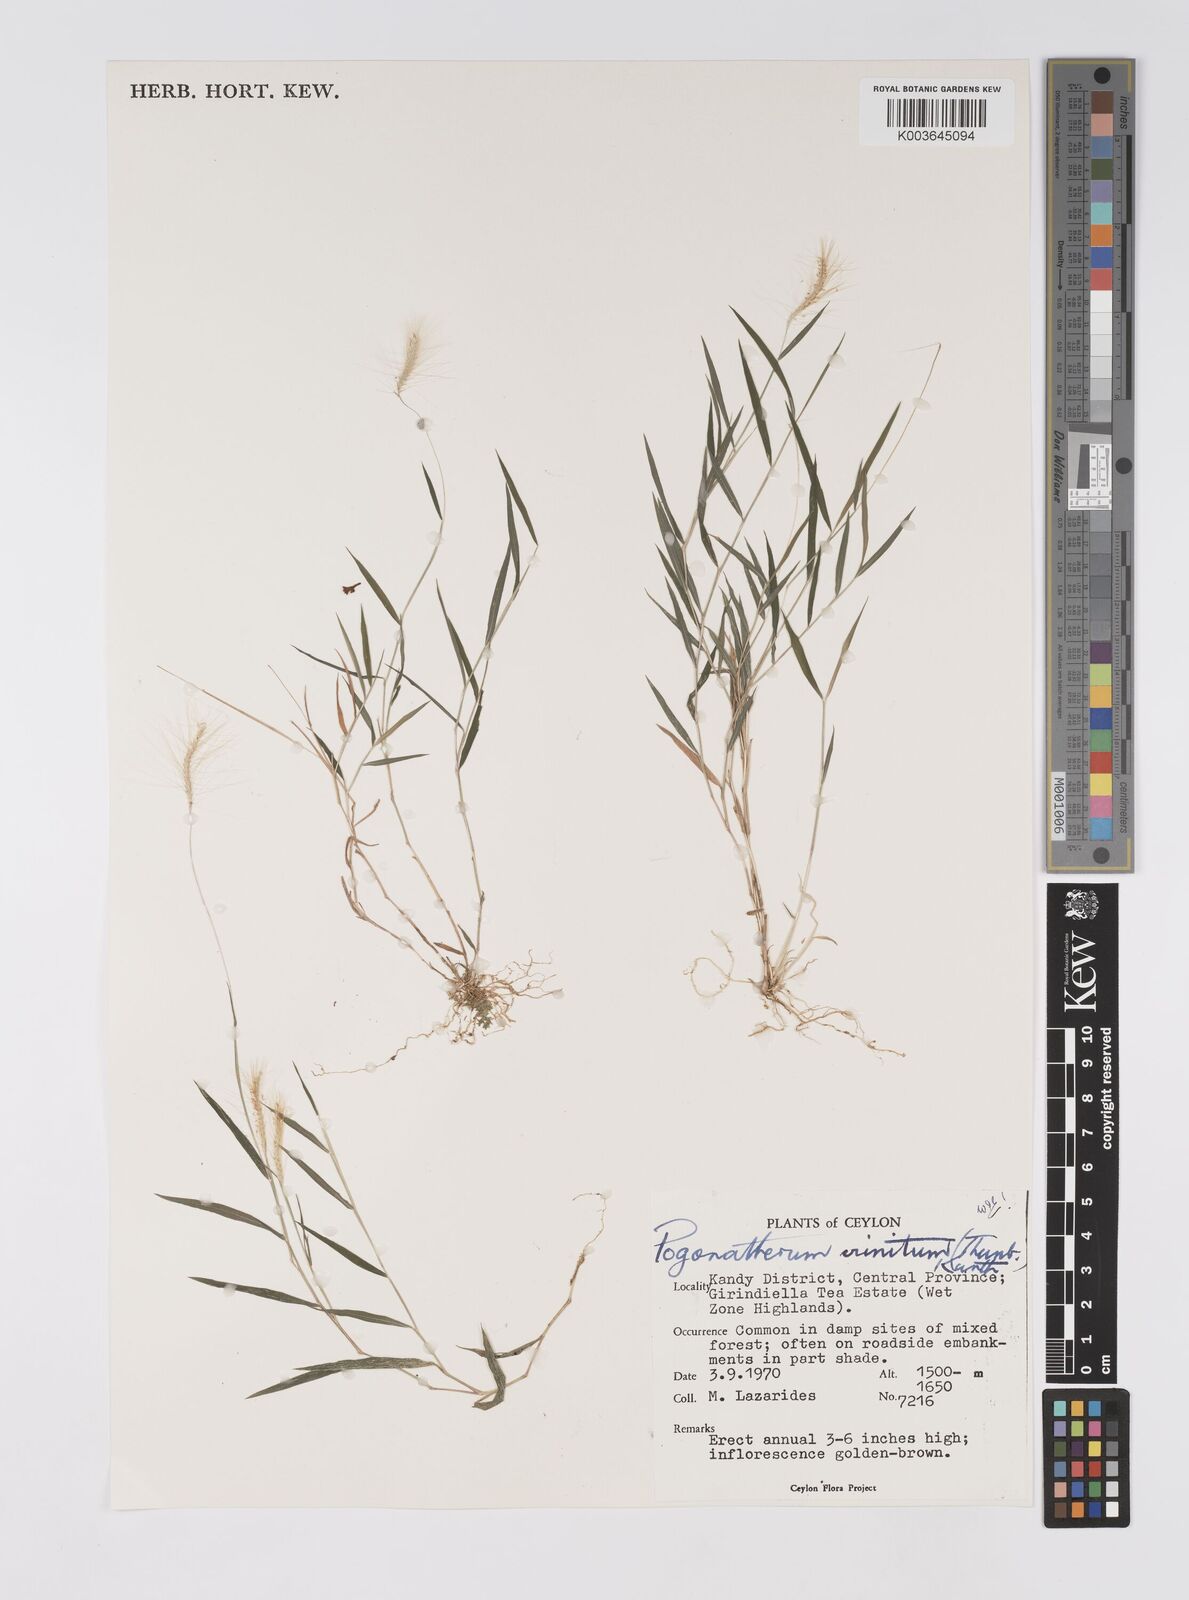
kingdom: Plantae
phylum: Tracheophyta
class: Liliopsida
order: Poales
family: Poaceae
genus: Pogonatherum
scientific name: Pogonatherum crinitum
